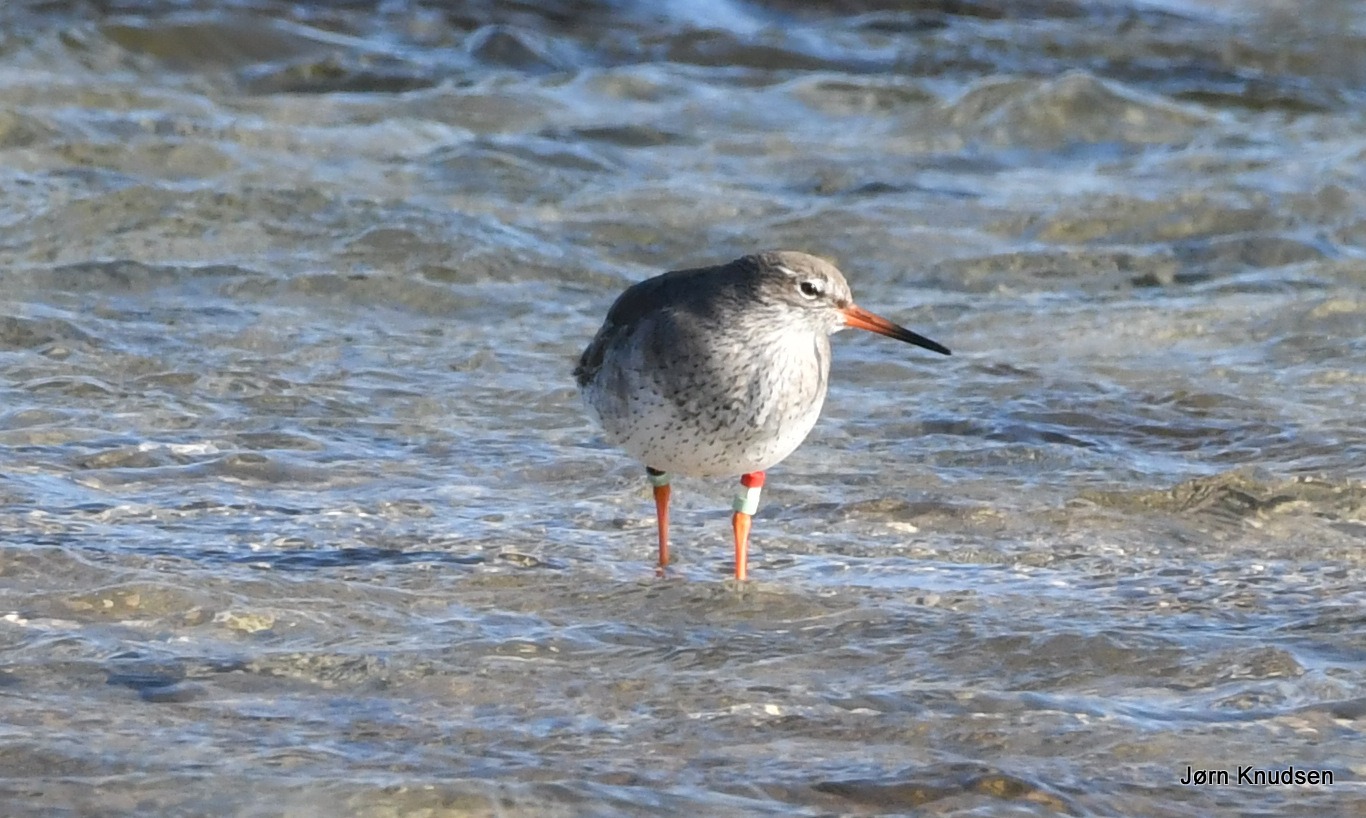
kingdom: Animalia
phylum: Chordata
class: Aves
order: Charadriiformes
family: Scolopacidae
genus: Tringa
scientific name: Tringa totanus
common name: Rødben
